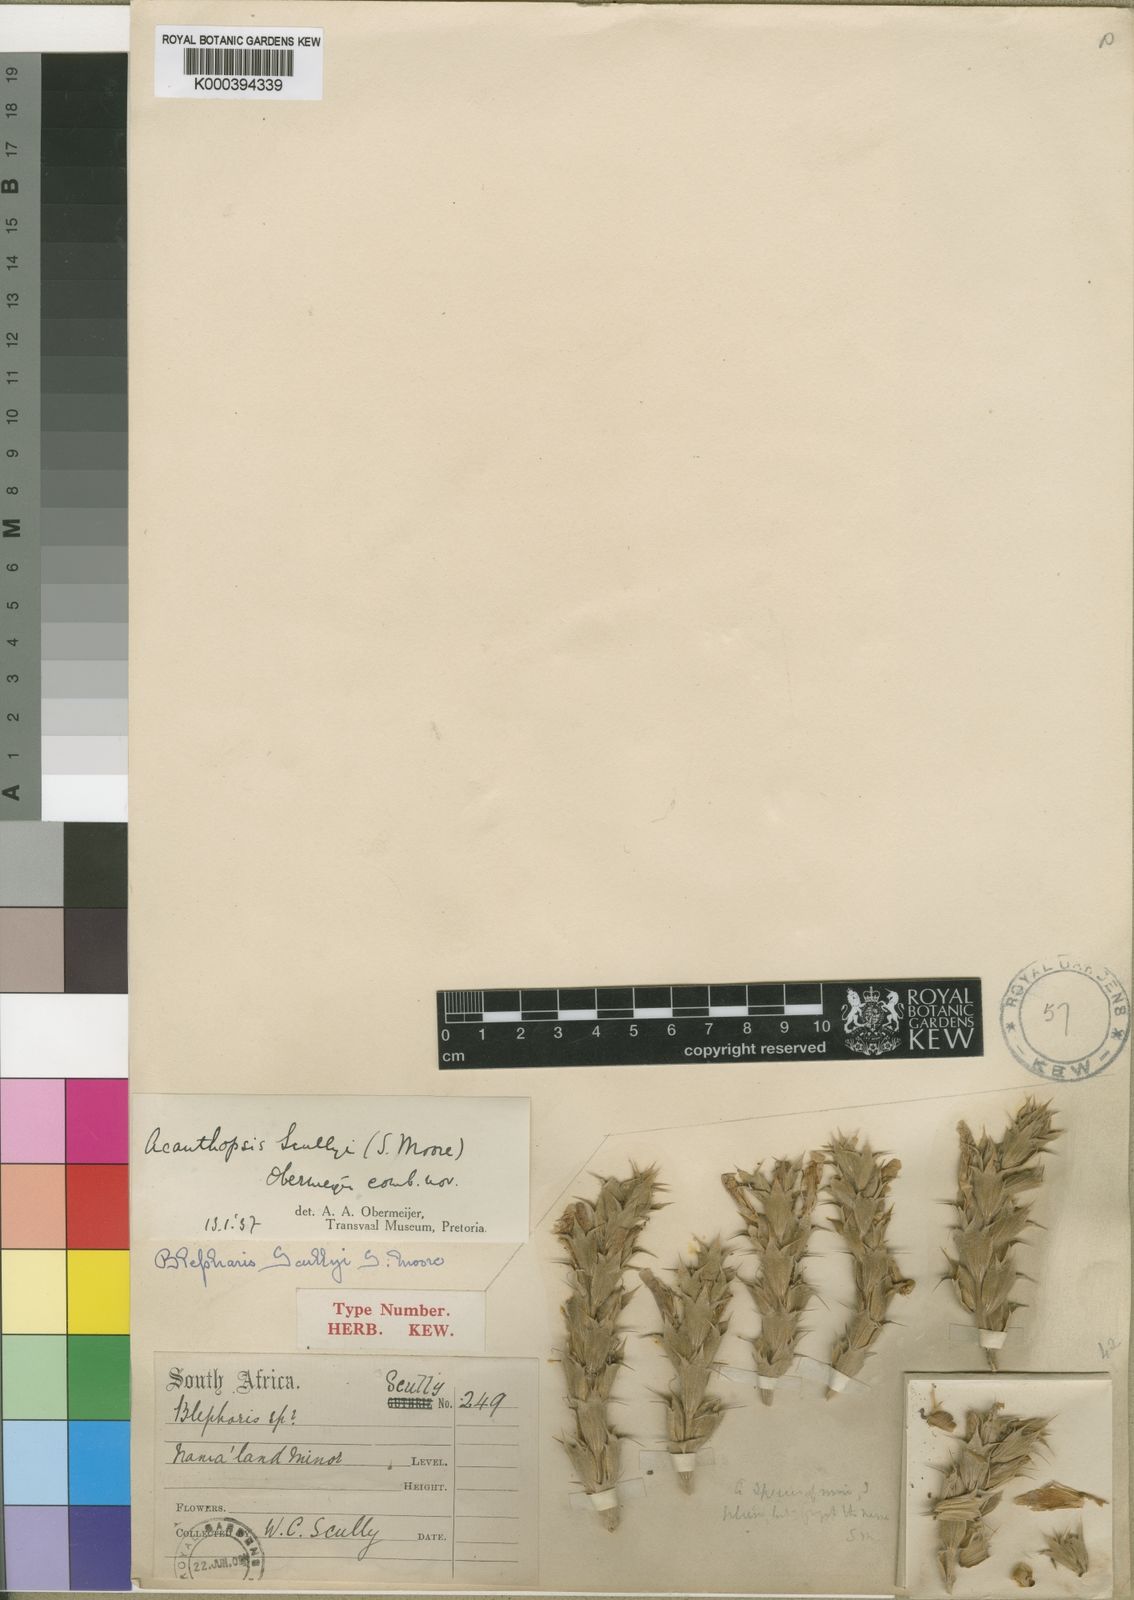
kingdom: Plantae
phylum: Tracheophyta
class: Magnoliopsida
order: Lamiales
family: Acanthaceae
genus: Acanthopsis
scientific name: Acanthopsis scullyi
